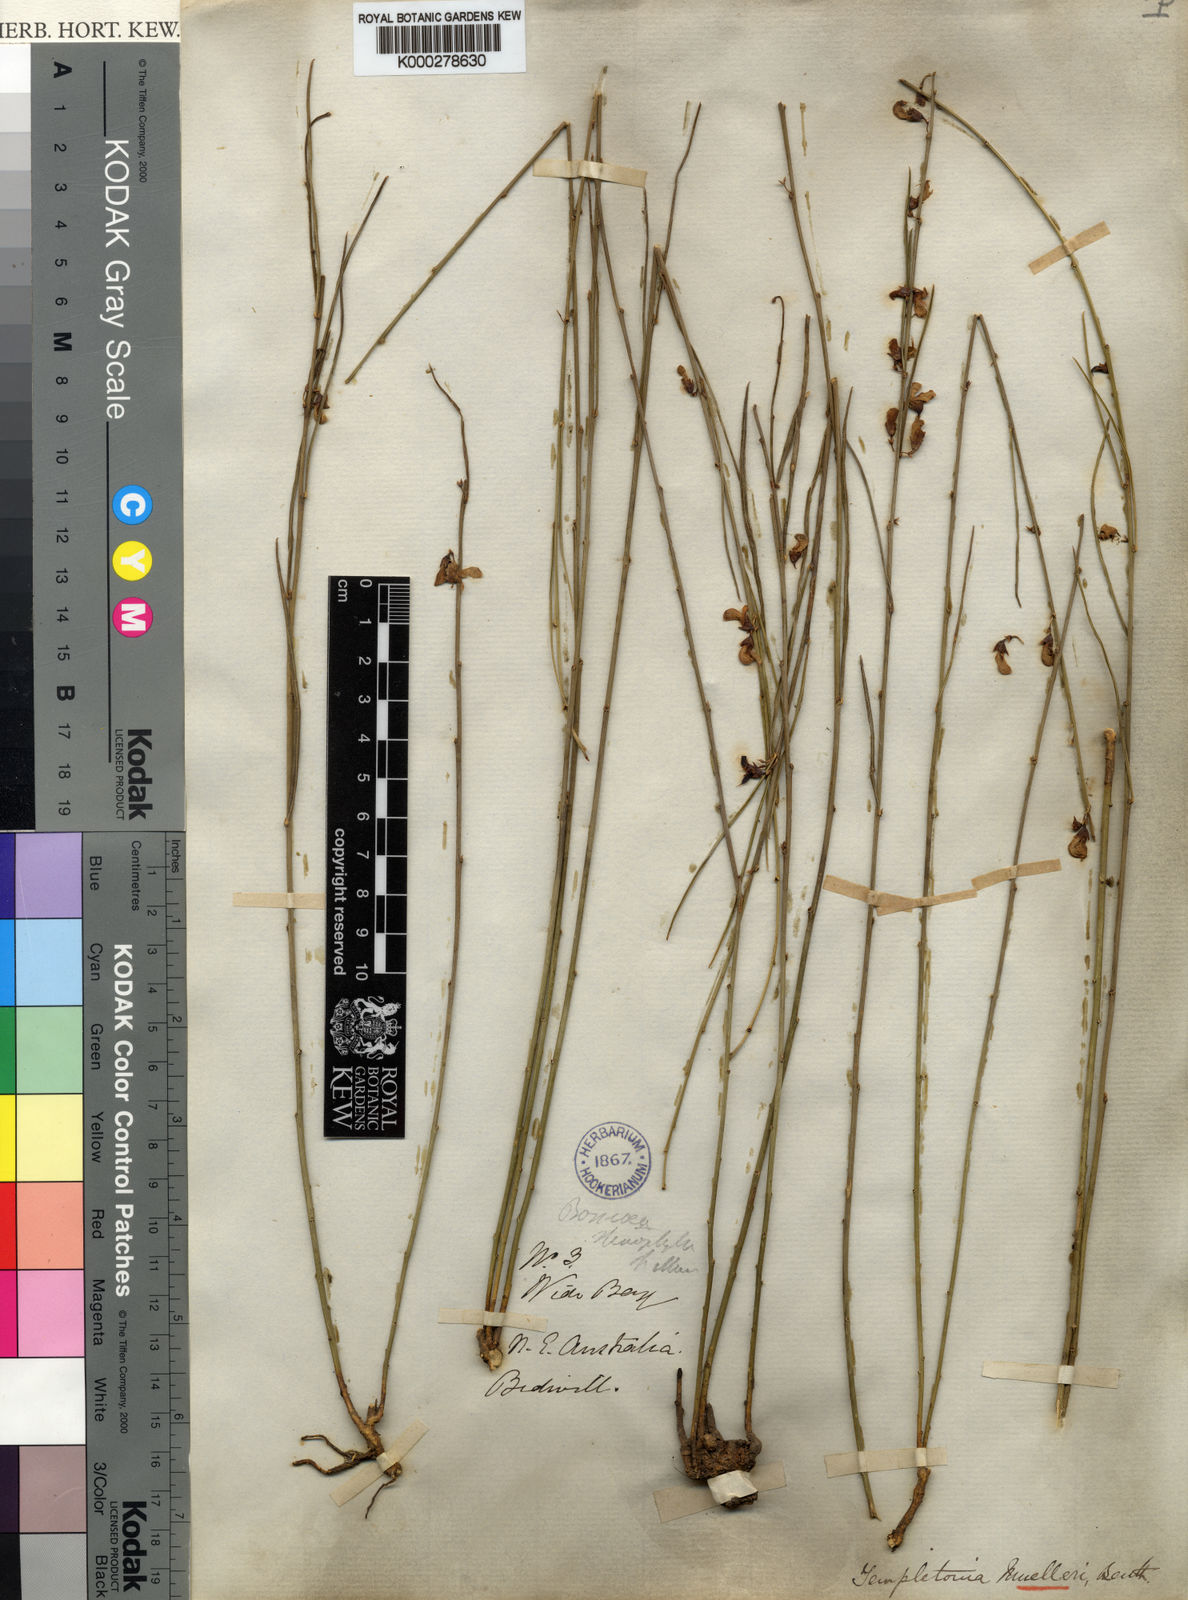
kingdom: Plantae
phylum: Tracheophyta
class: Magnoliopsida
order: Fabales
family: Fabaceae
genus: Templetonia
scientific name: Templetonia stenophylla
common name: Leafy templetonia
